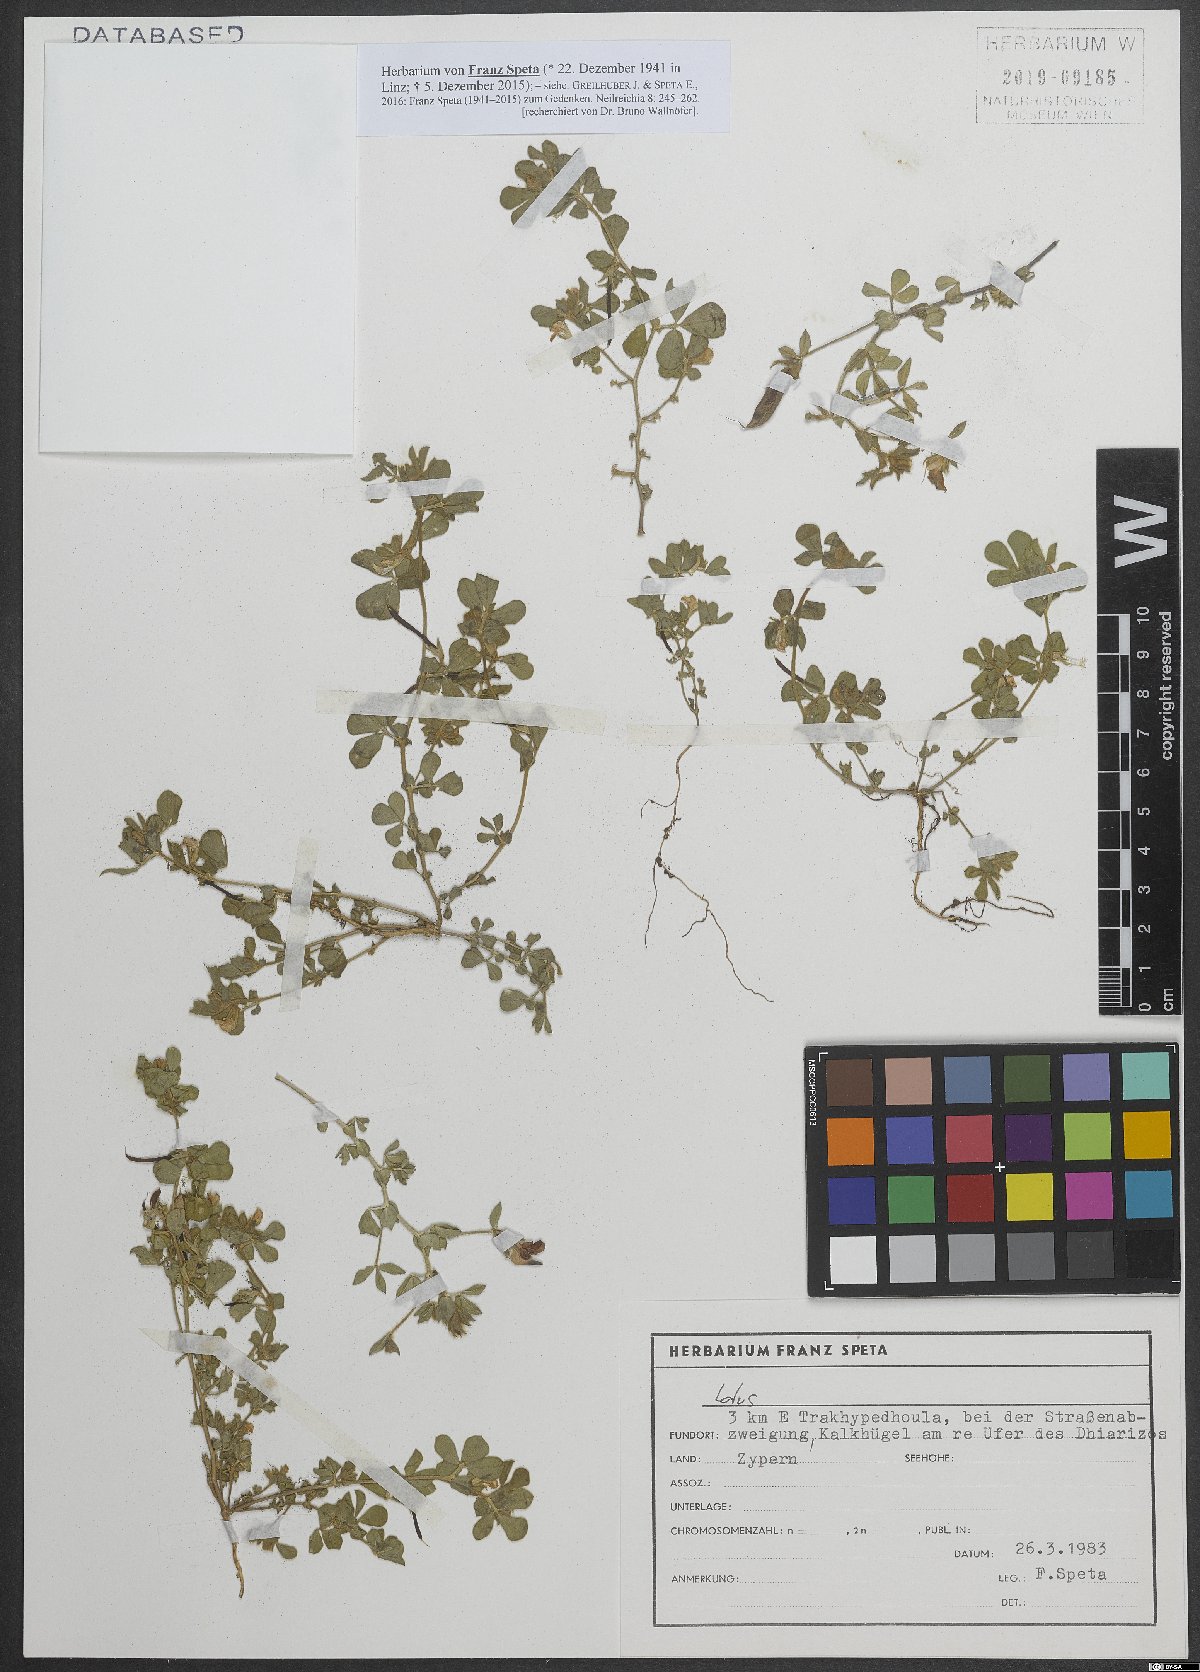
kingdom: Plantae
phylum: Tracheophyta
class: Magnoliopsida
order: Fabales
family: Fabaceae
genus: Lotus
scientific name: Lotus
